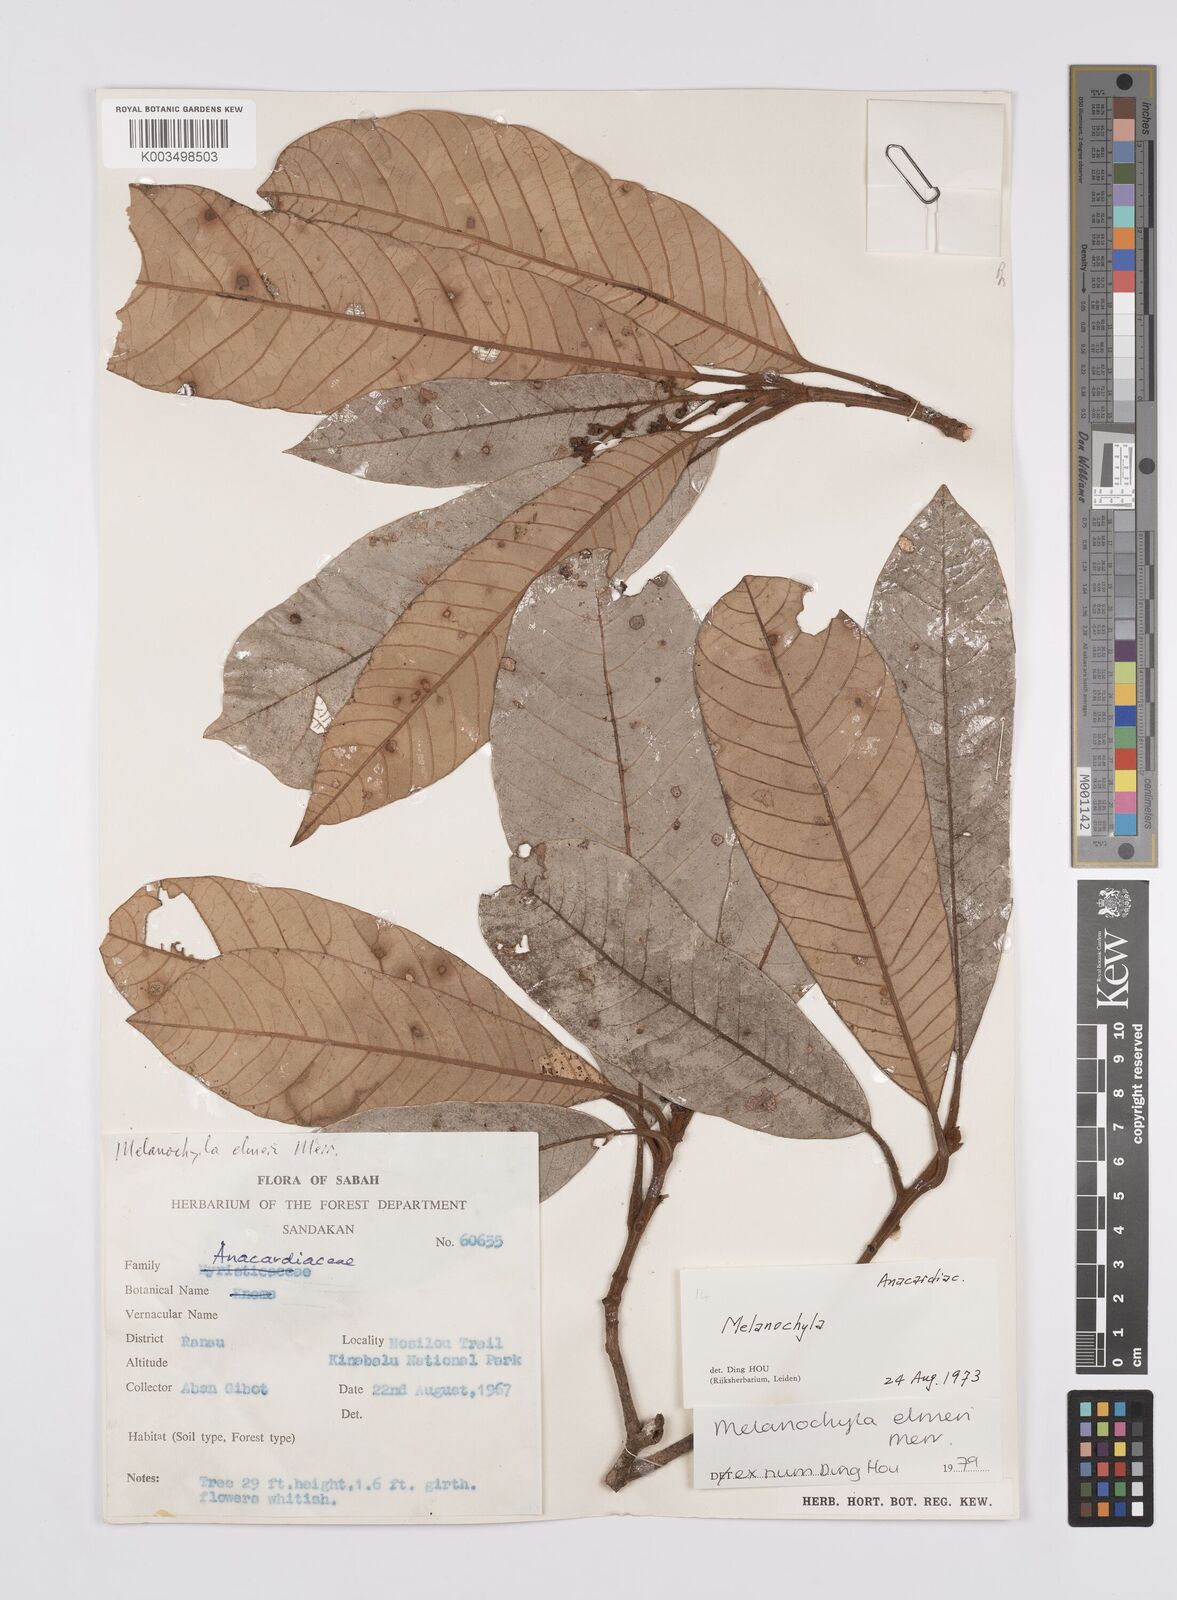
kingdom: Plantae
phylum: Tracheophyta
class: Magnoliopsida
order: Sapindales
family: Anacardiaceae
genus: Melanochyla
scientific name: Melanochyla elmeri
